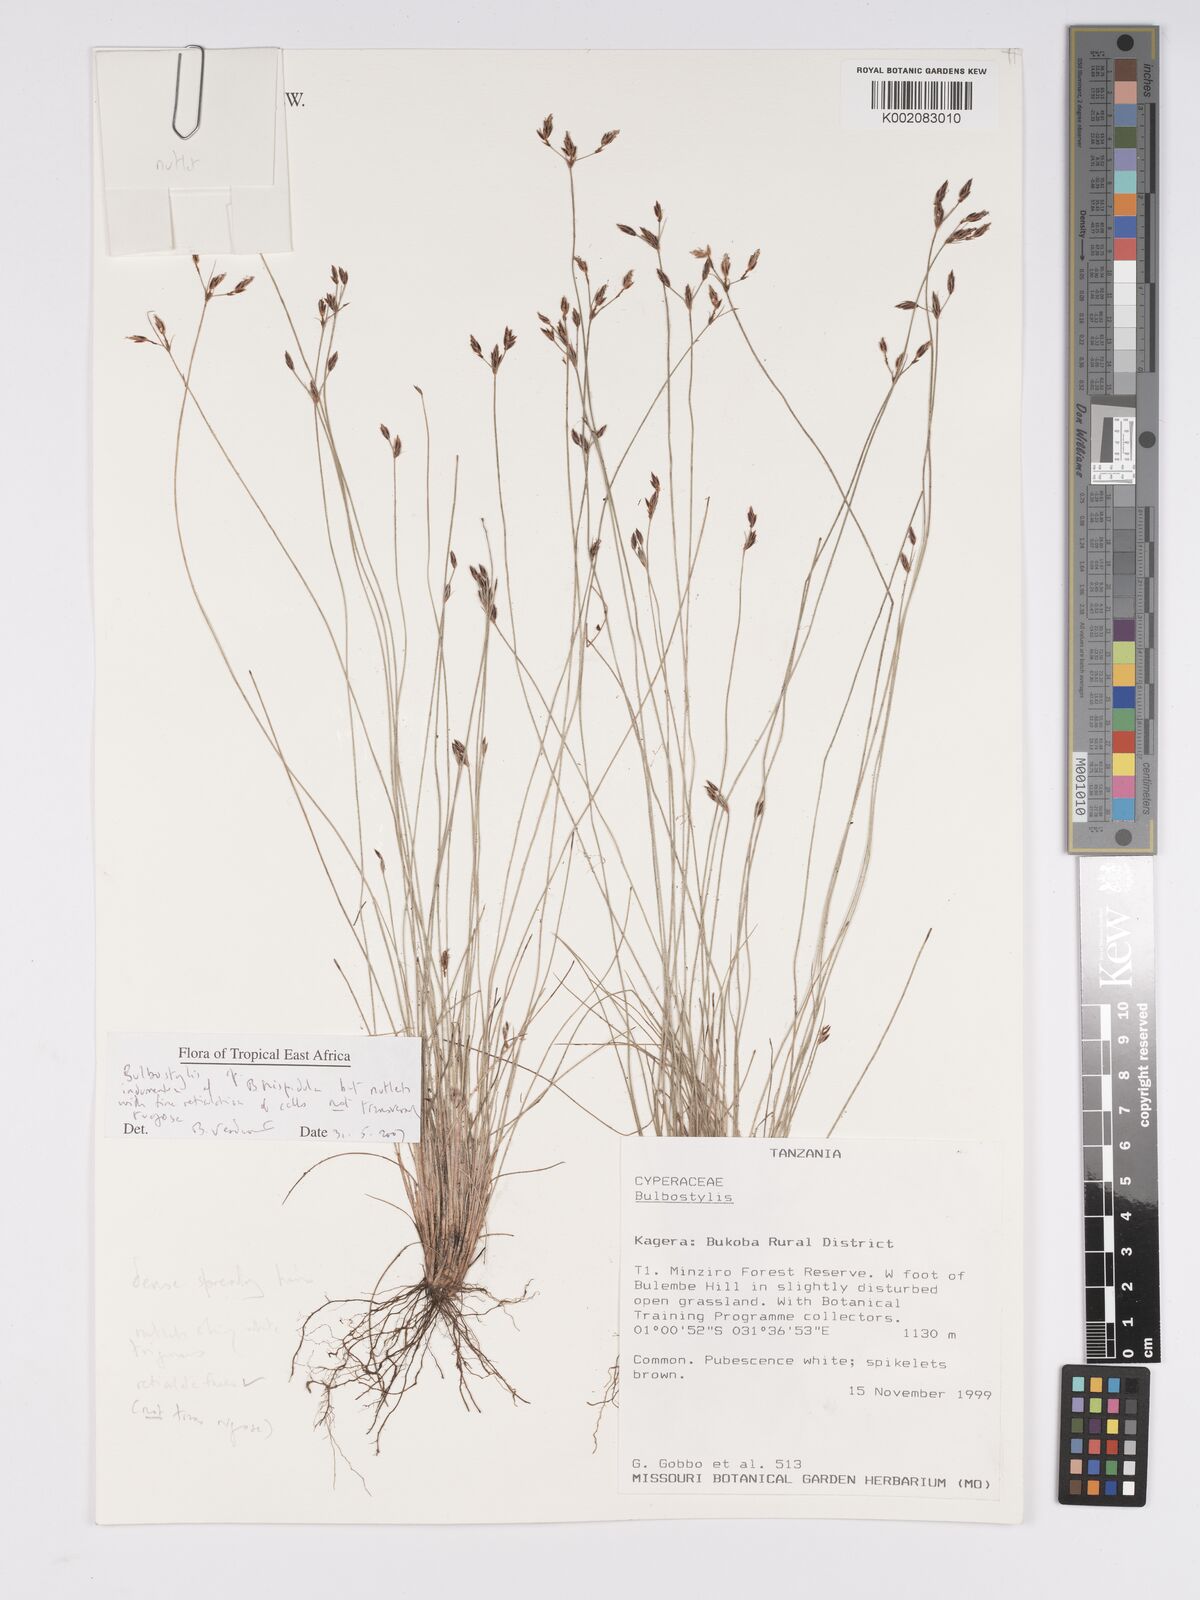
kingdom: Plantae
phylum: Tracheophyta
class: Liliopsida
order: Poales
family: Cyperaceae
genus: Bulbostylis
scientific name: Bulbostylis hispidula
